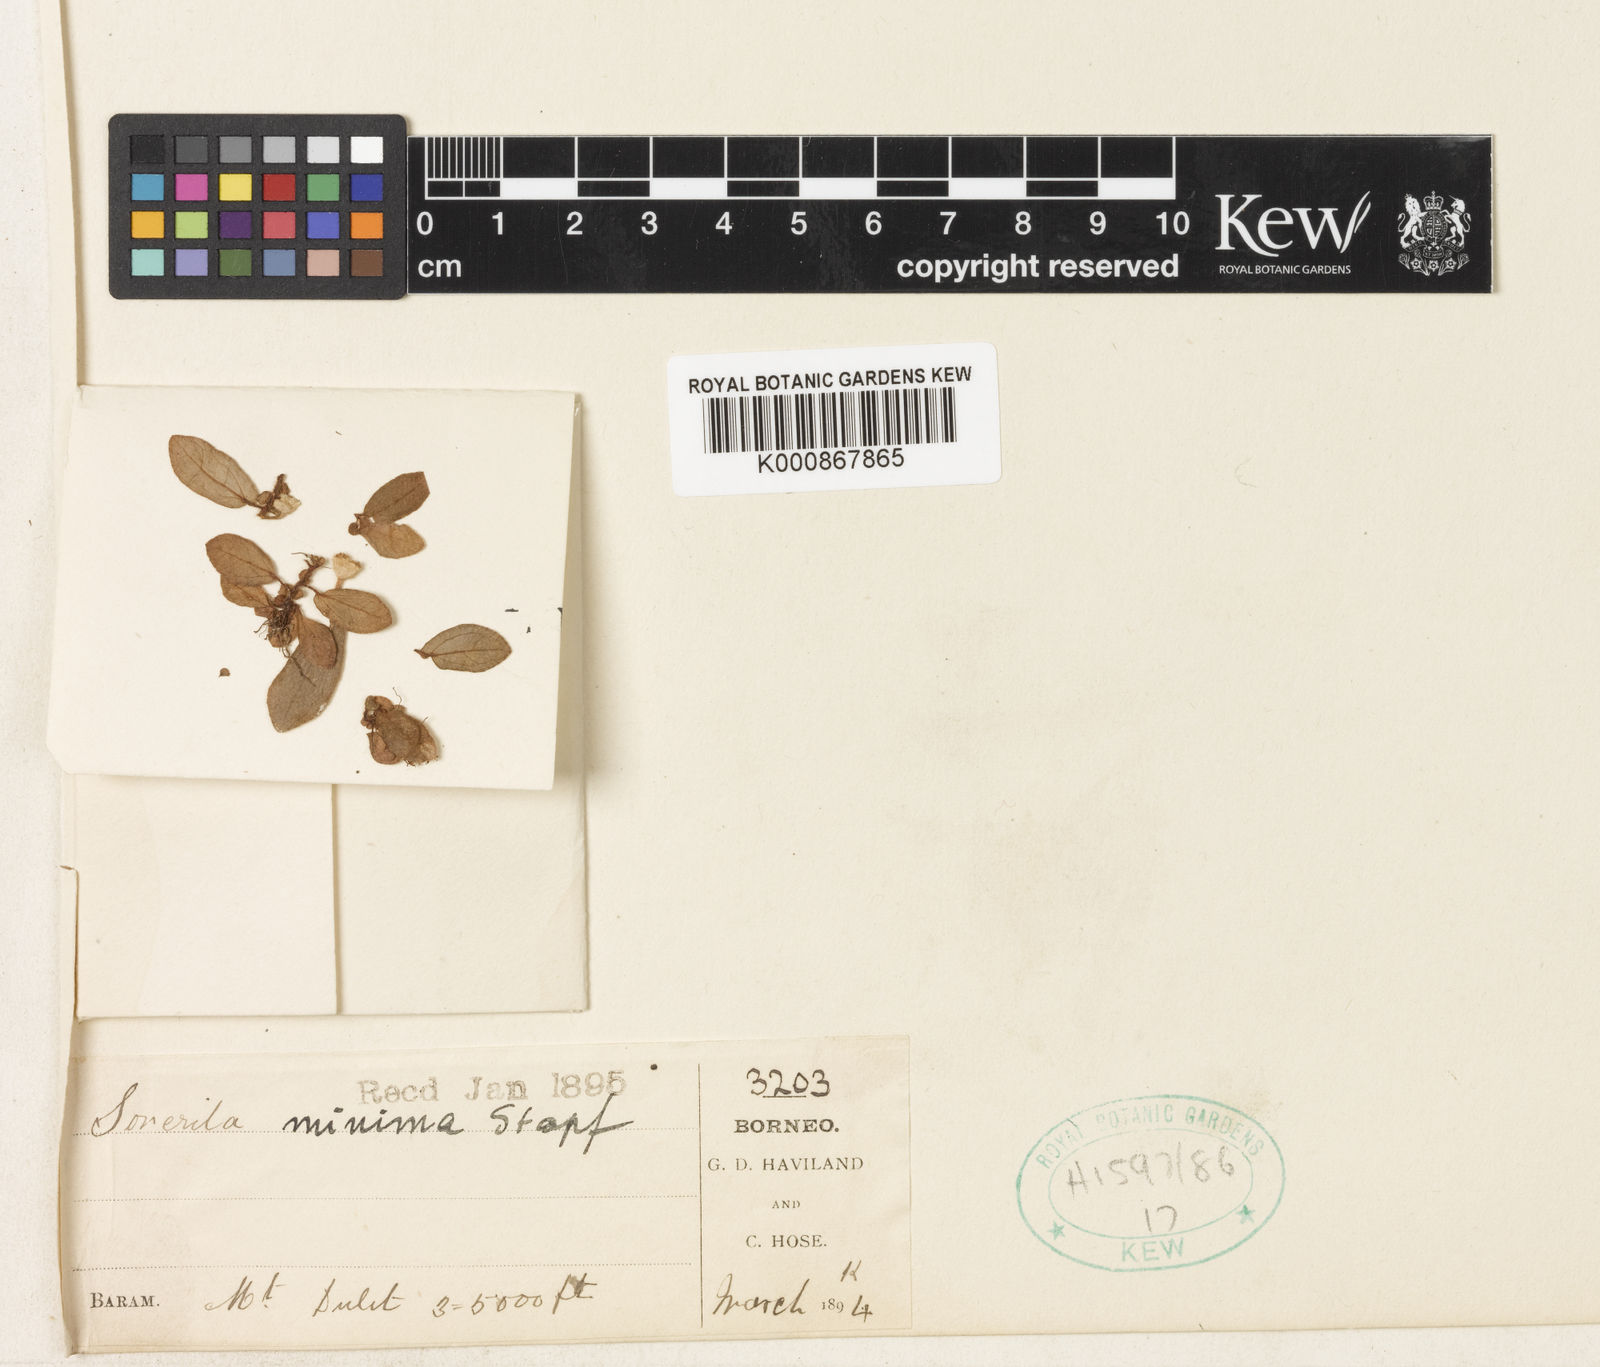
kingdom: Plantae
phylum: Tracheophyta
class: Magnoliopsida
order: Myrtales
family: Melastomataceae
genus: Sonerila
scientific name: Sonerila minima
